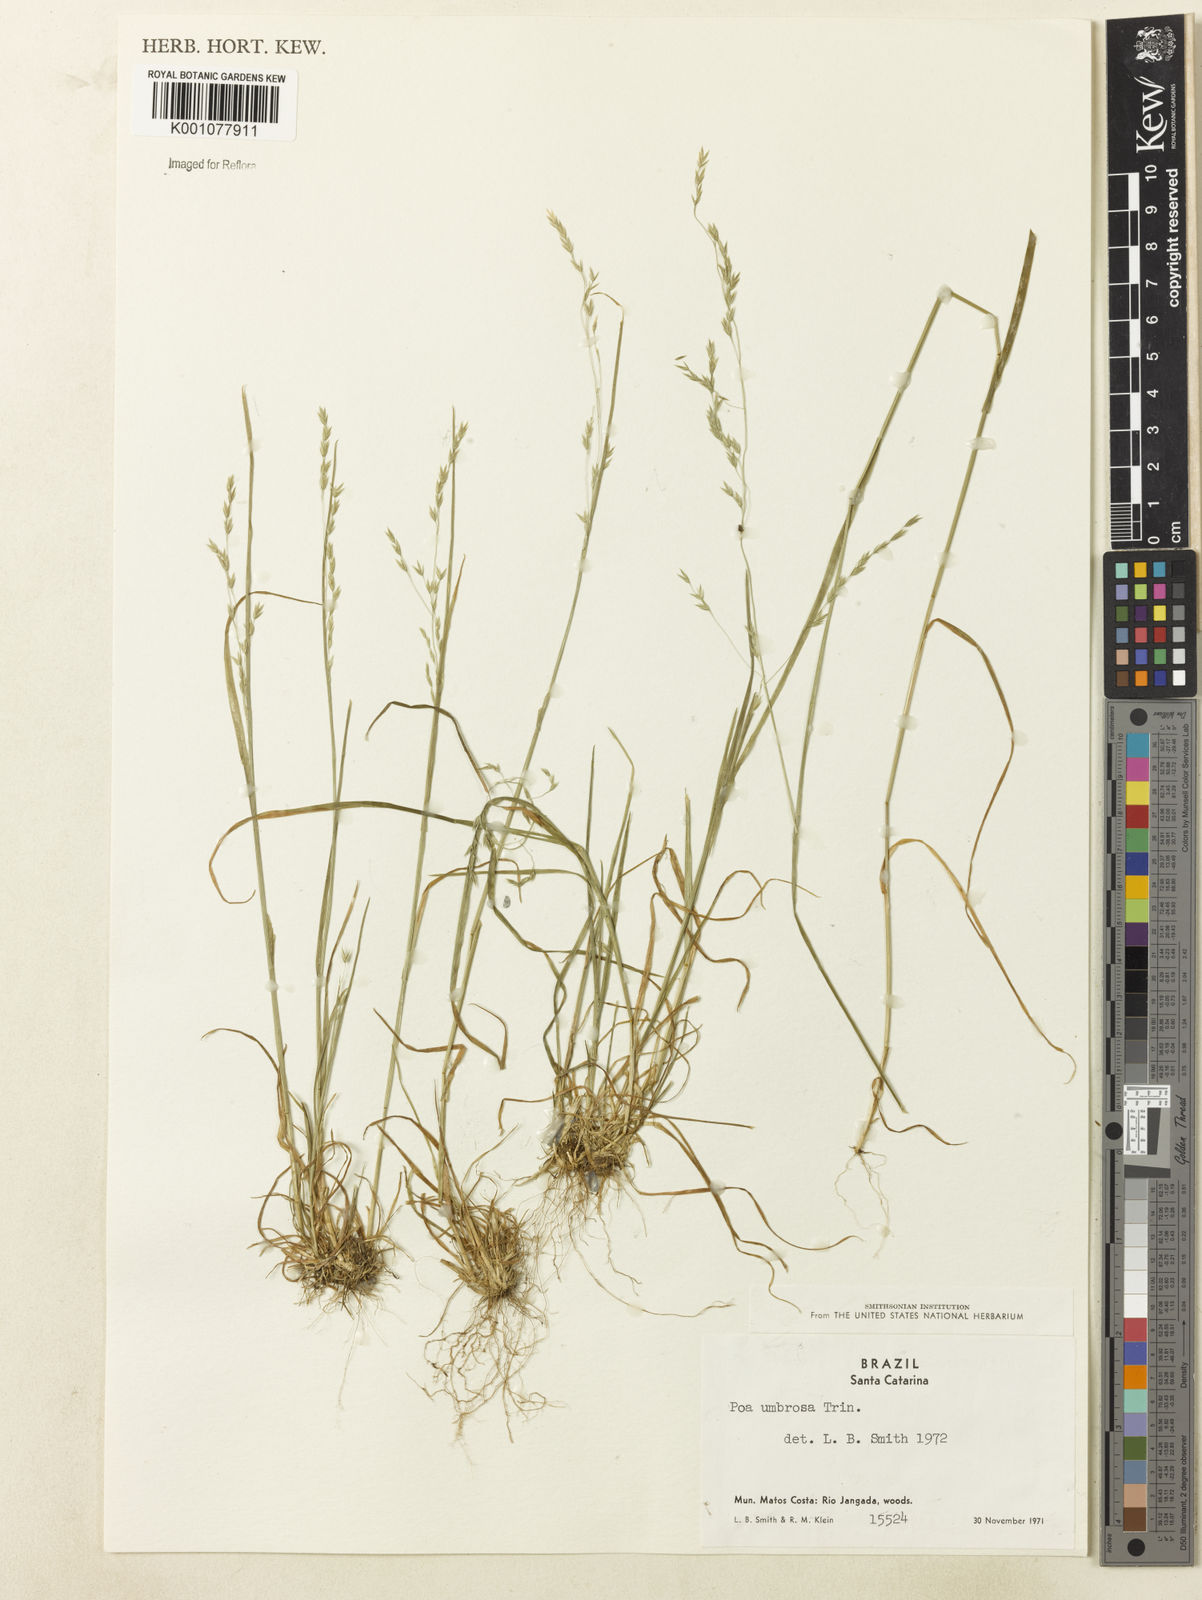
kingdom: Plantae
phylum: Tracheophyta
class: Liliopsida
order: Poales
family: Poaceae
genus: Poa
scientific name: Poa umbrosa
